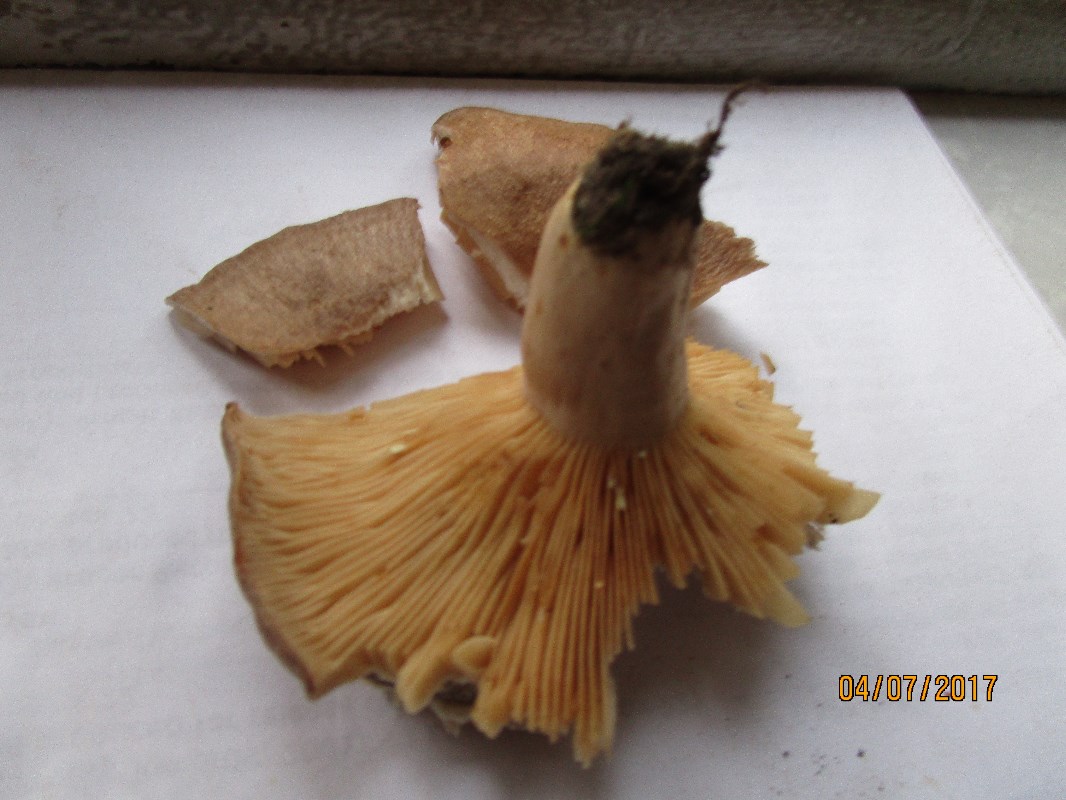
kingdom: Fungi
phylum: Basidiomycota
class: Agaricomycetes
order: Russulales
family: Russulaceae
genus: Lactarius
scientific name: Lactarius circellatus
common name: avnbøg-mælkehat
